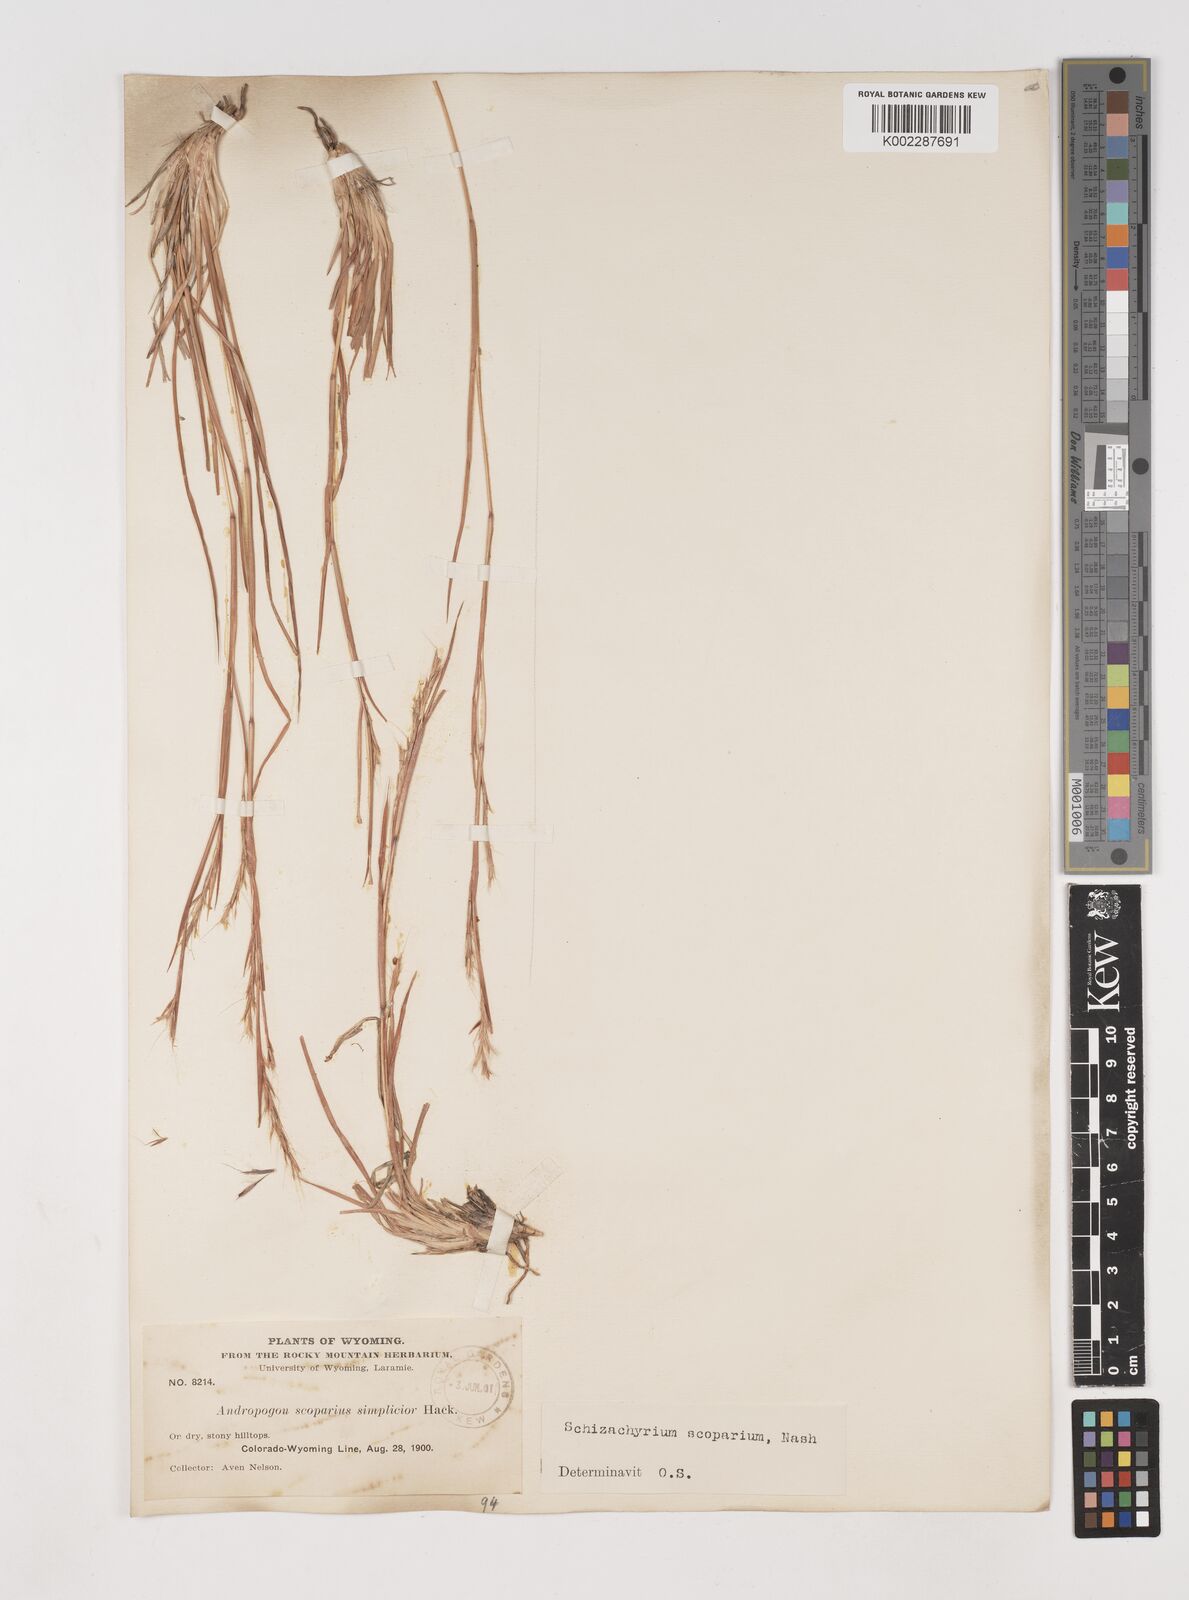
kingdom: Plantae
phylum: Tracheophyta
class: Liliopsida
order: Poales
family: Poaceae
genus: Schizachyrium
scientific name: Schizachyrium scoparium
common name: Little bluestem
